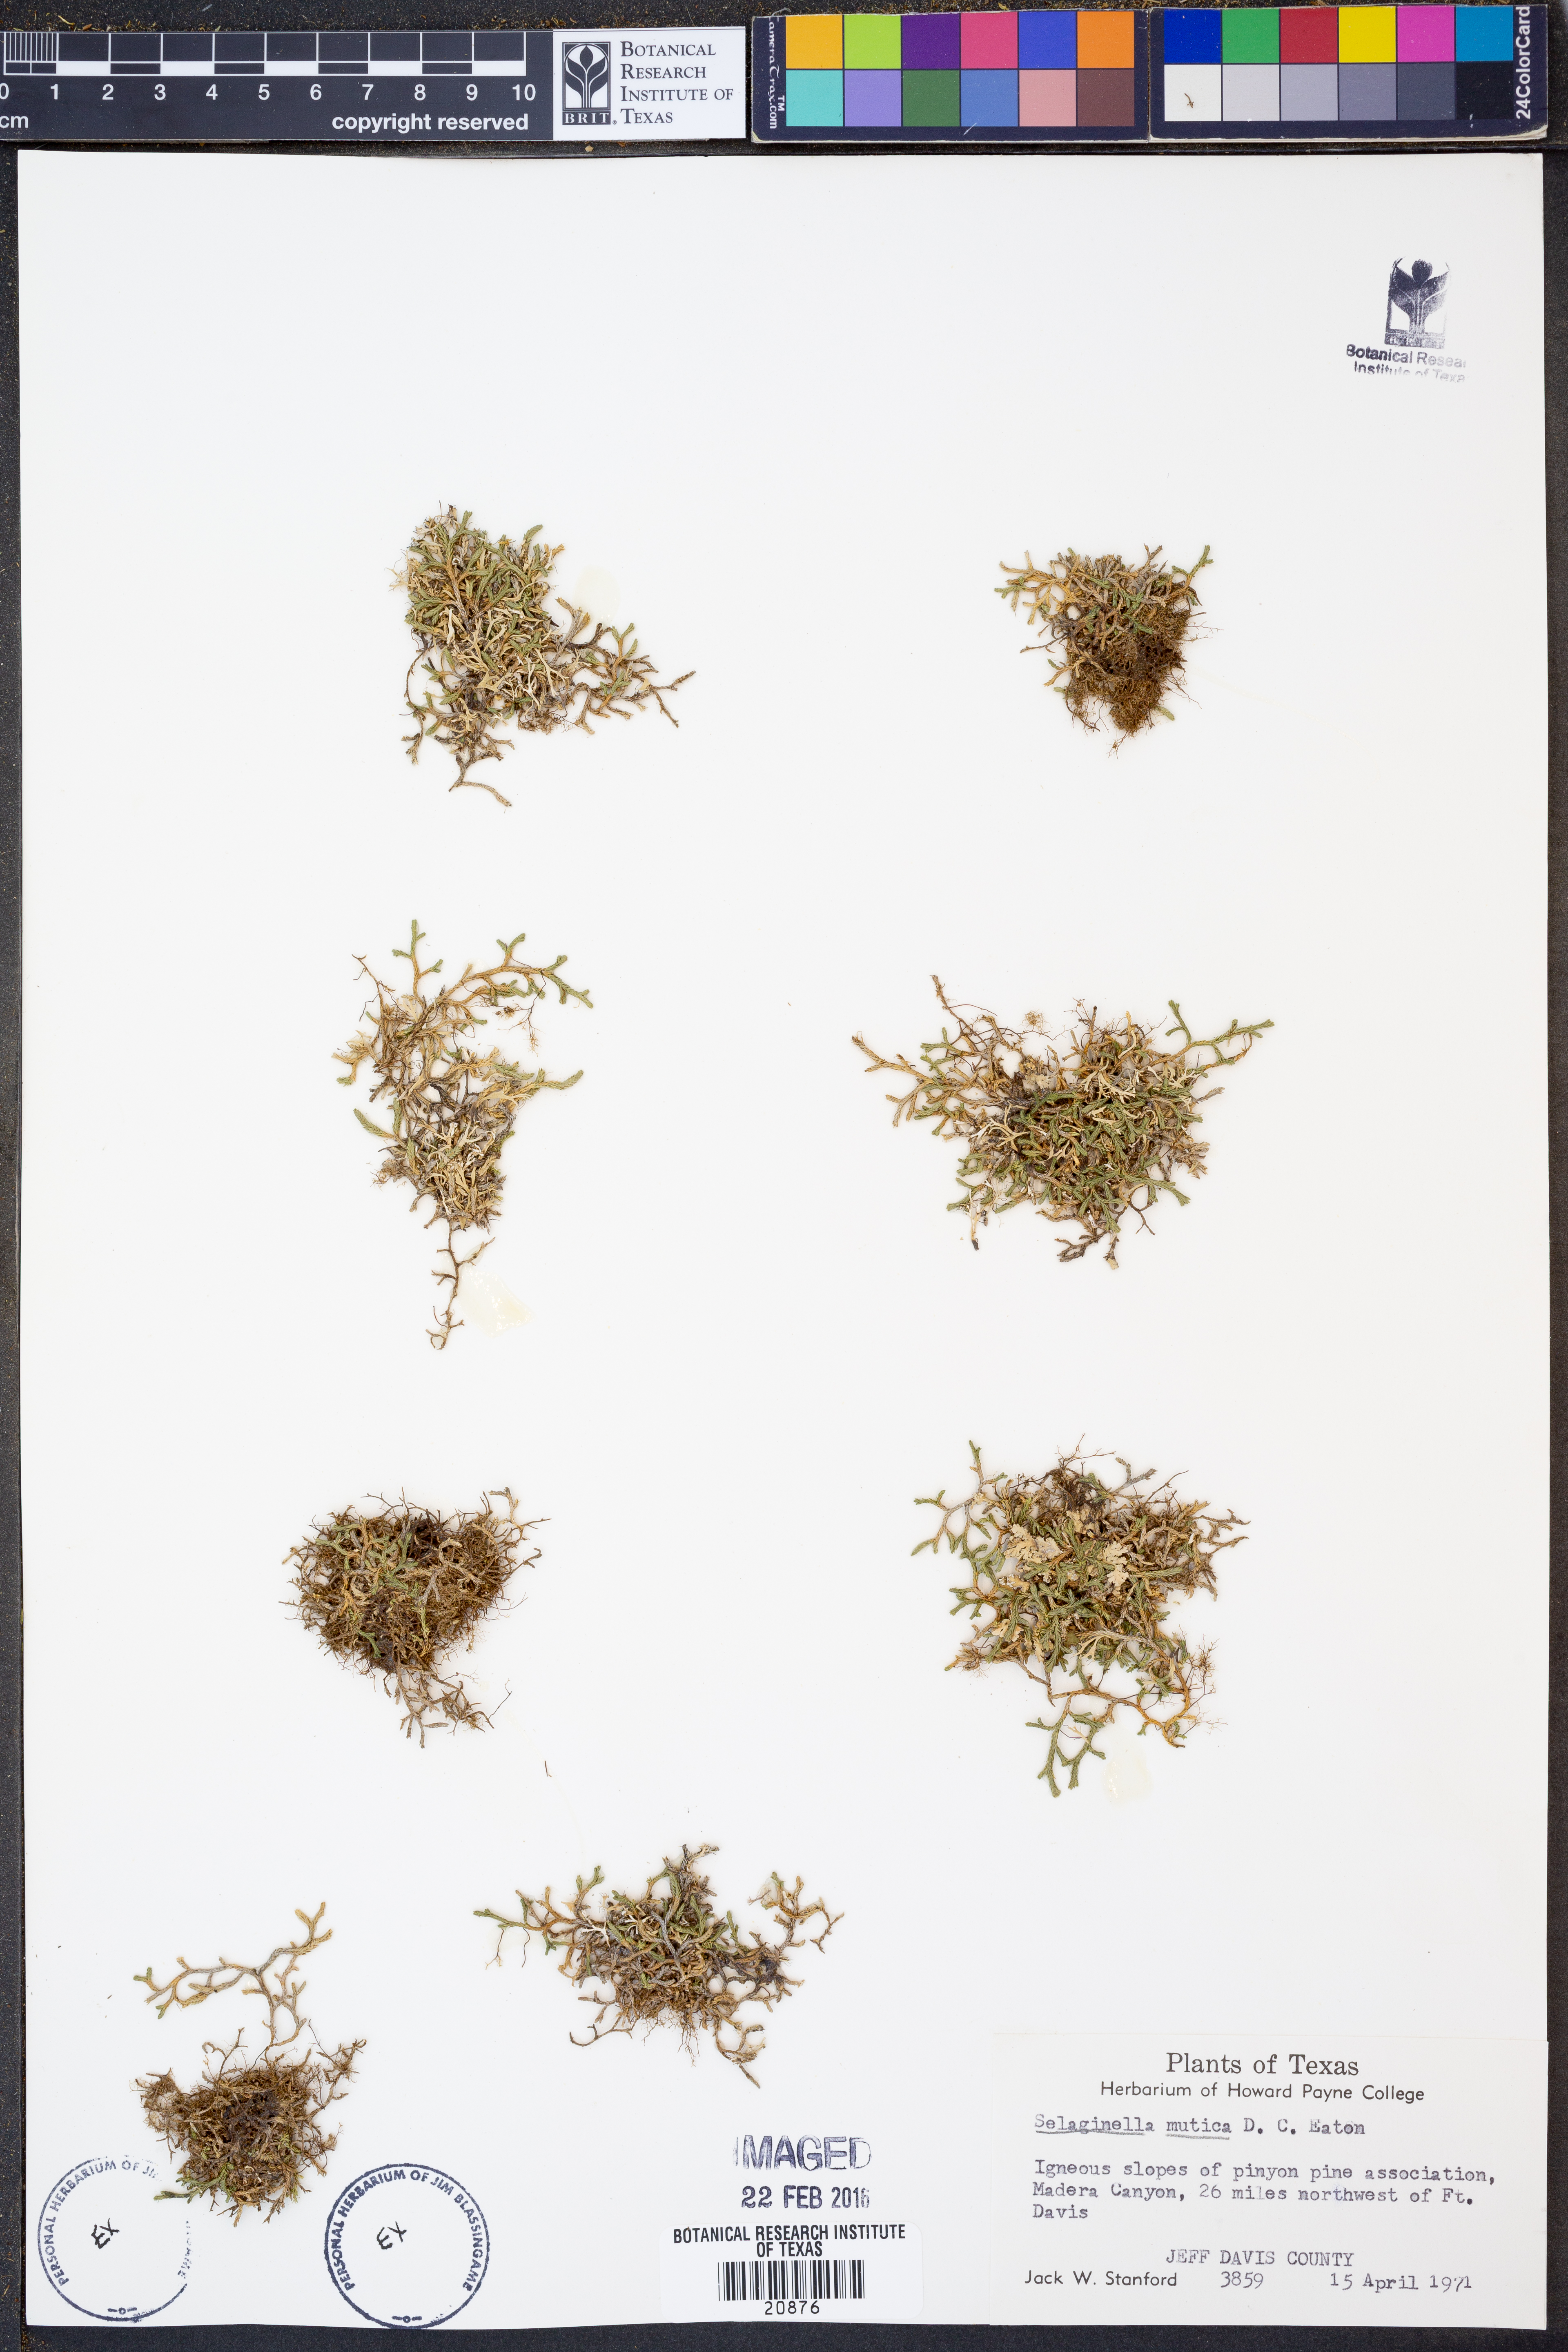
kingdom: Plantae
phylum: Tracheophyta
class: Lycopodiopsida
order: Selaginellales
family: Selaginellaceae
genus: Selaginella
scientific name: Selaginella mutica
